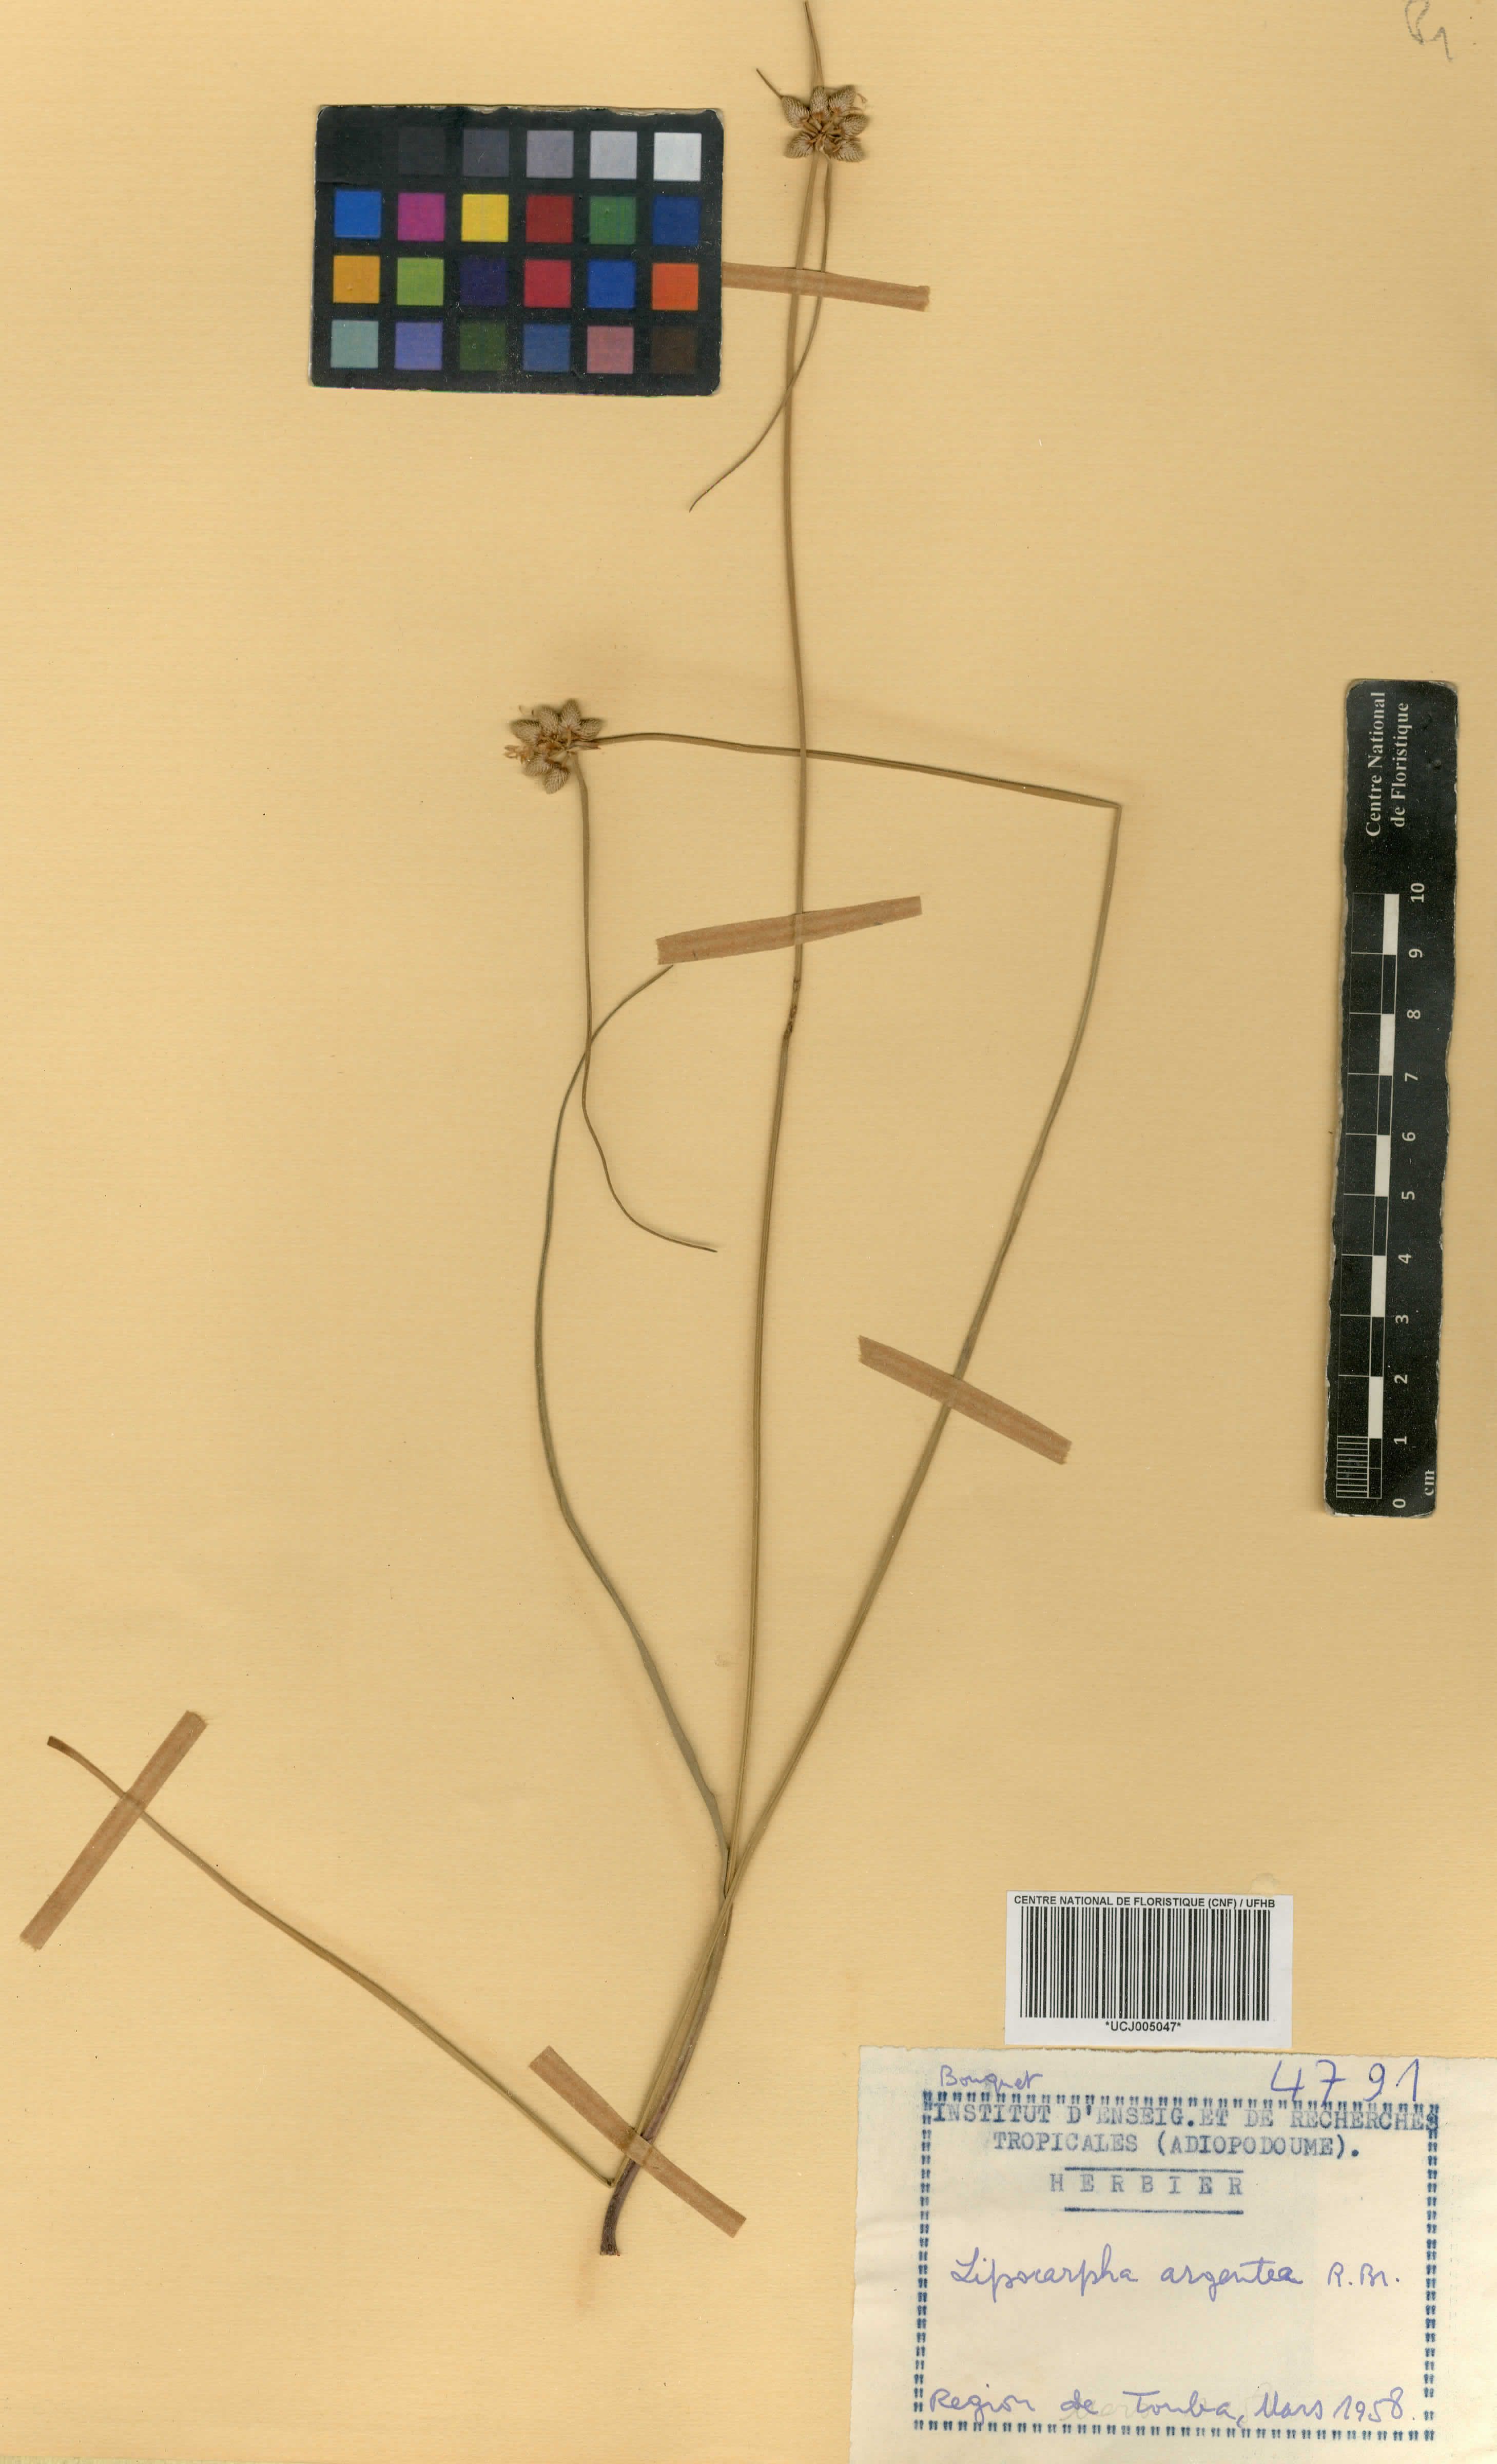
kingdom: Plantae
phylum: Tracheophyta
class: Liliopsida
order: Poales
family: Cyperaceae
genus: Cyperus
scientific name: Cyperus albescens
